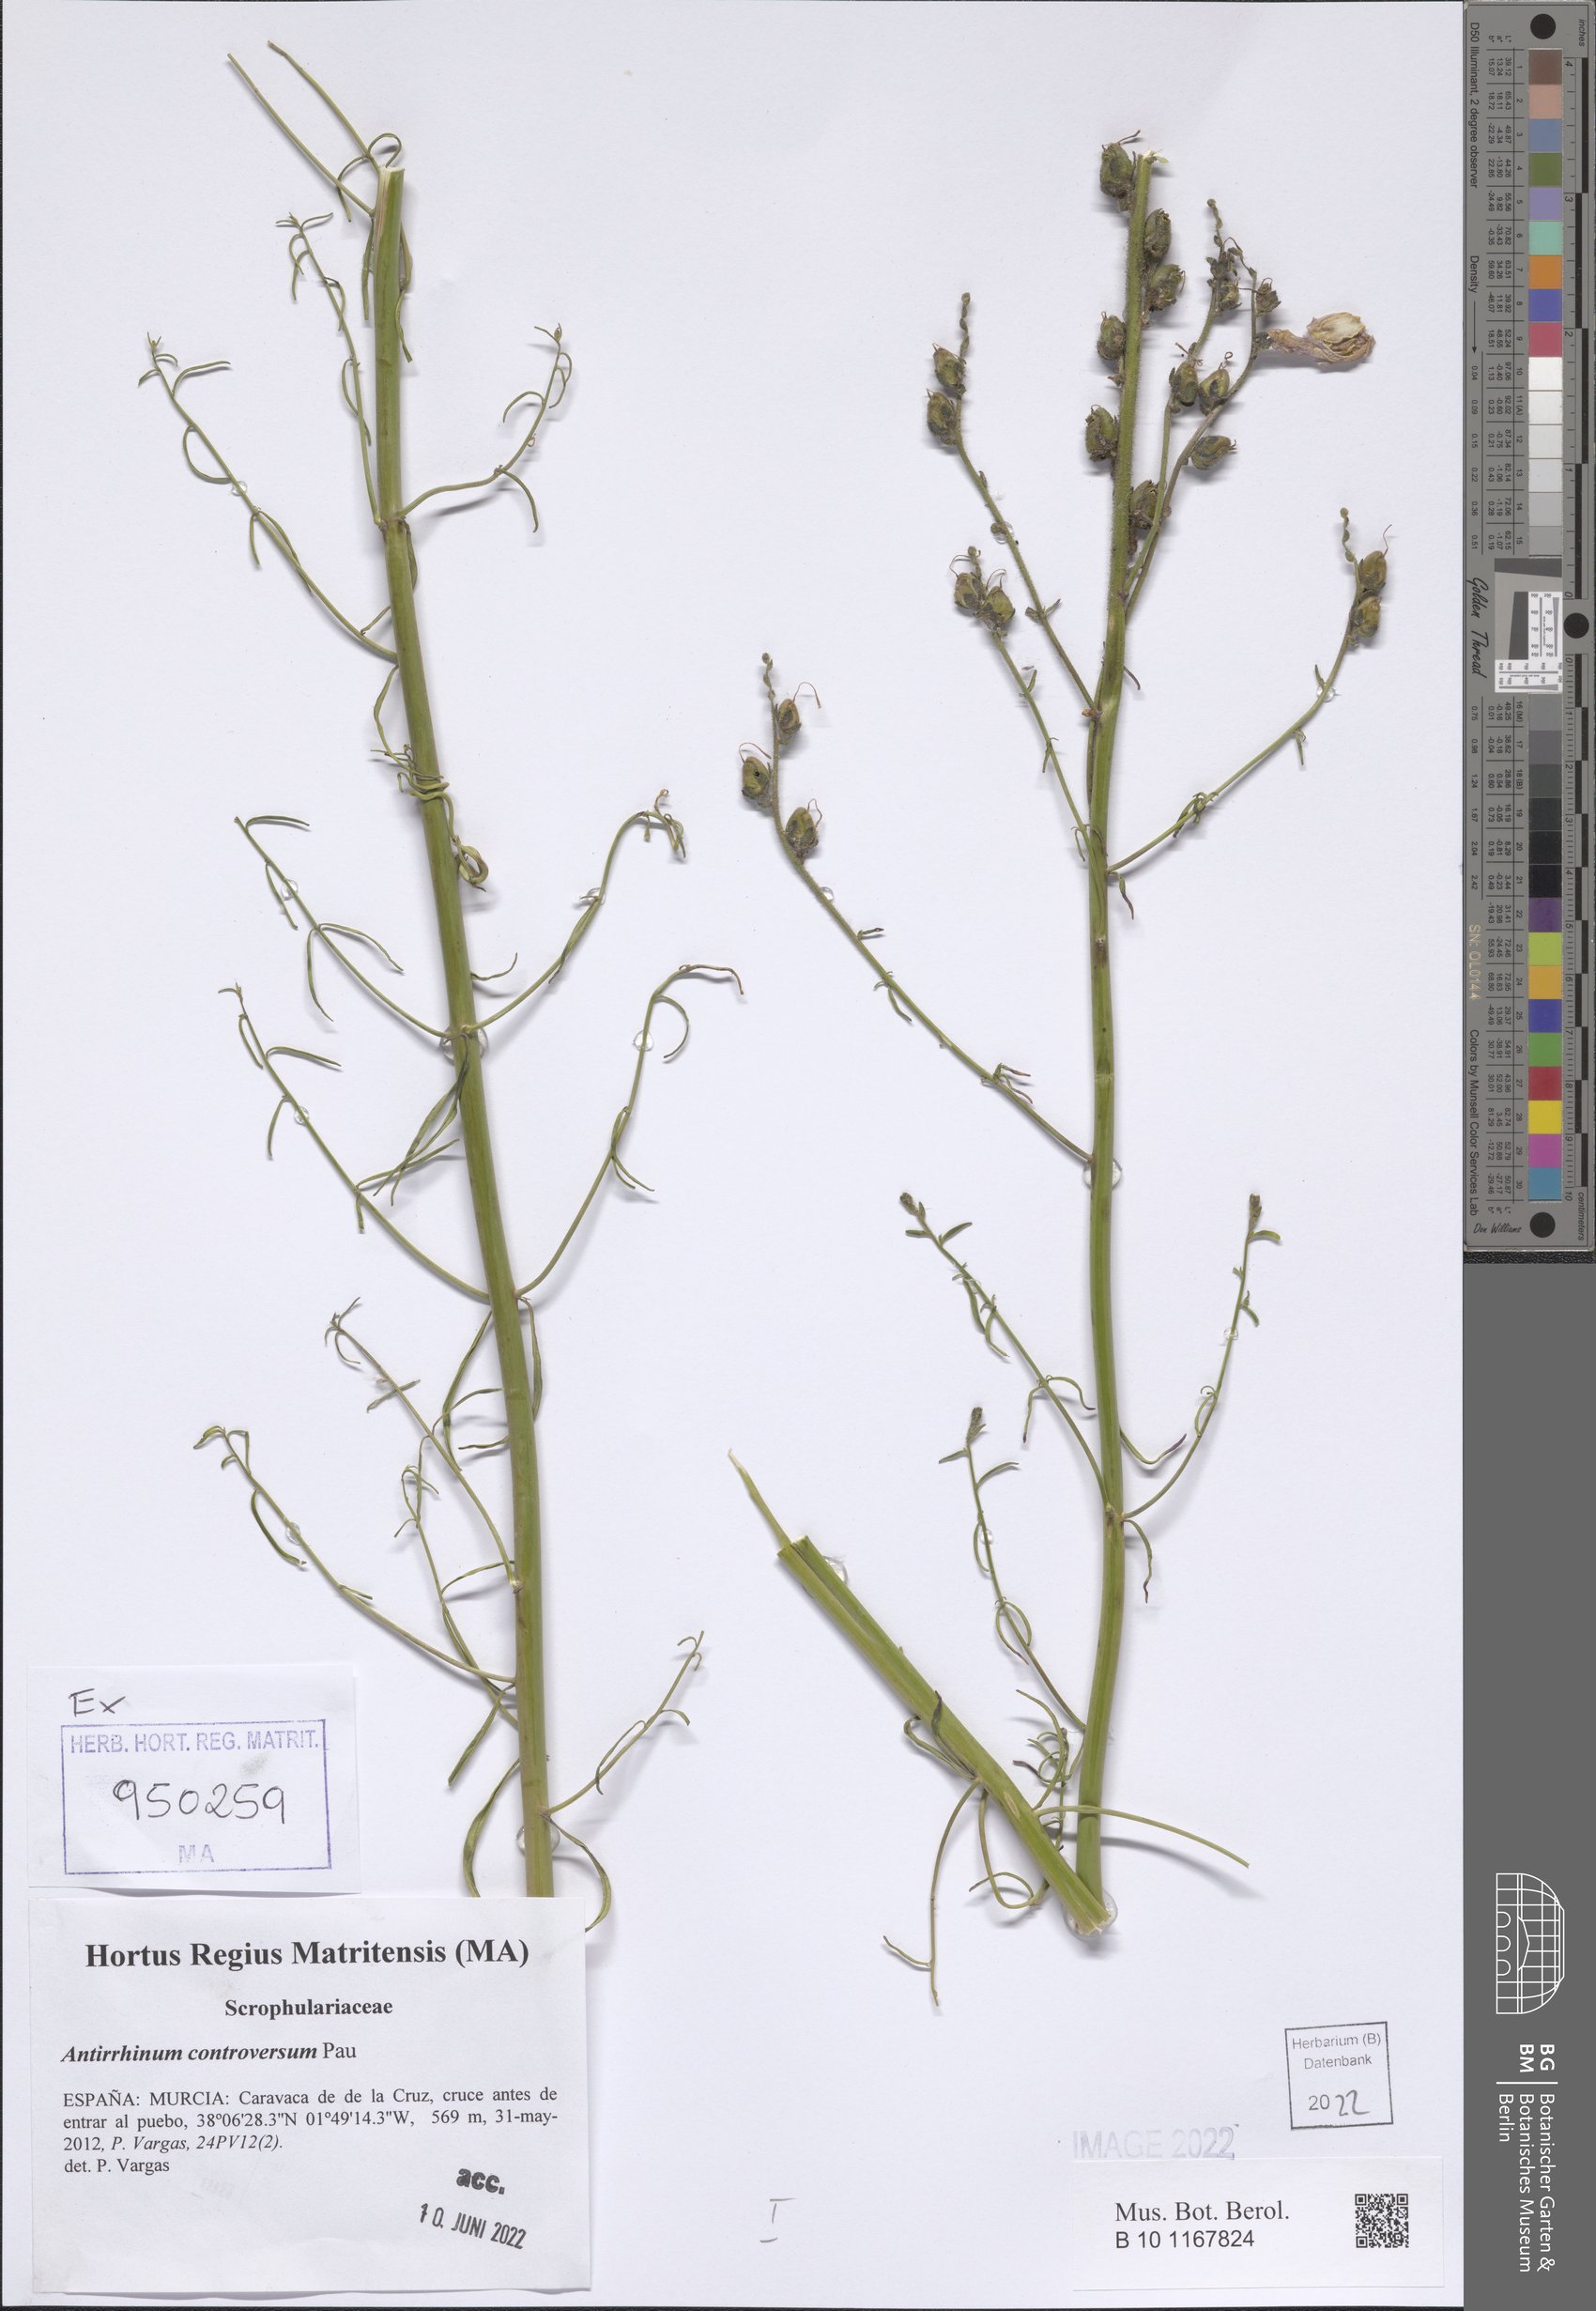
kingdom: Plantae
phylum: Tracheophyta
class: Magnoliopsida
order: Lamiales
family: Plantaginaceae
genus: Antirrhinum
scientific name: Antirrhinum controversum
